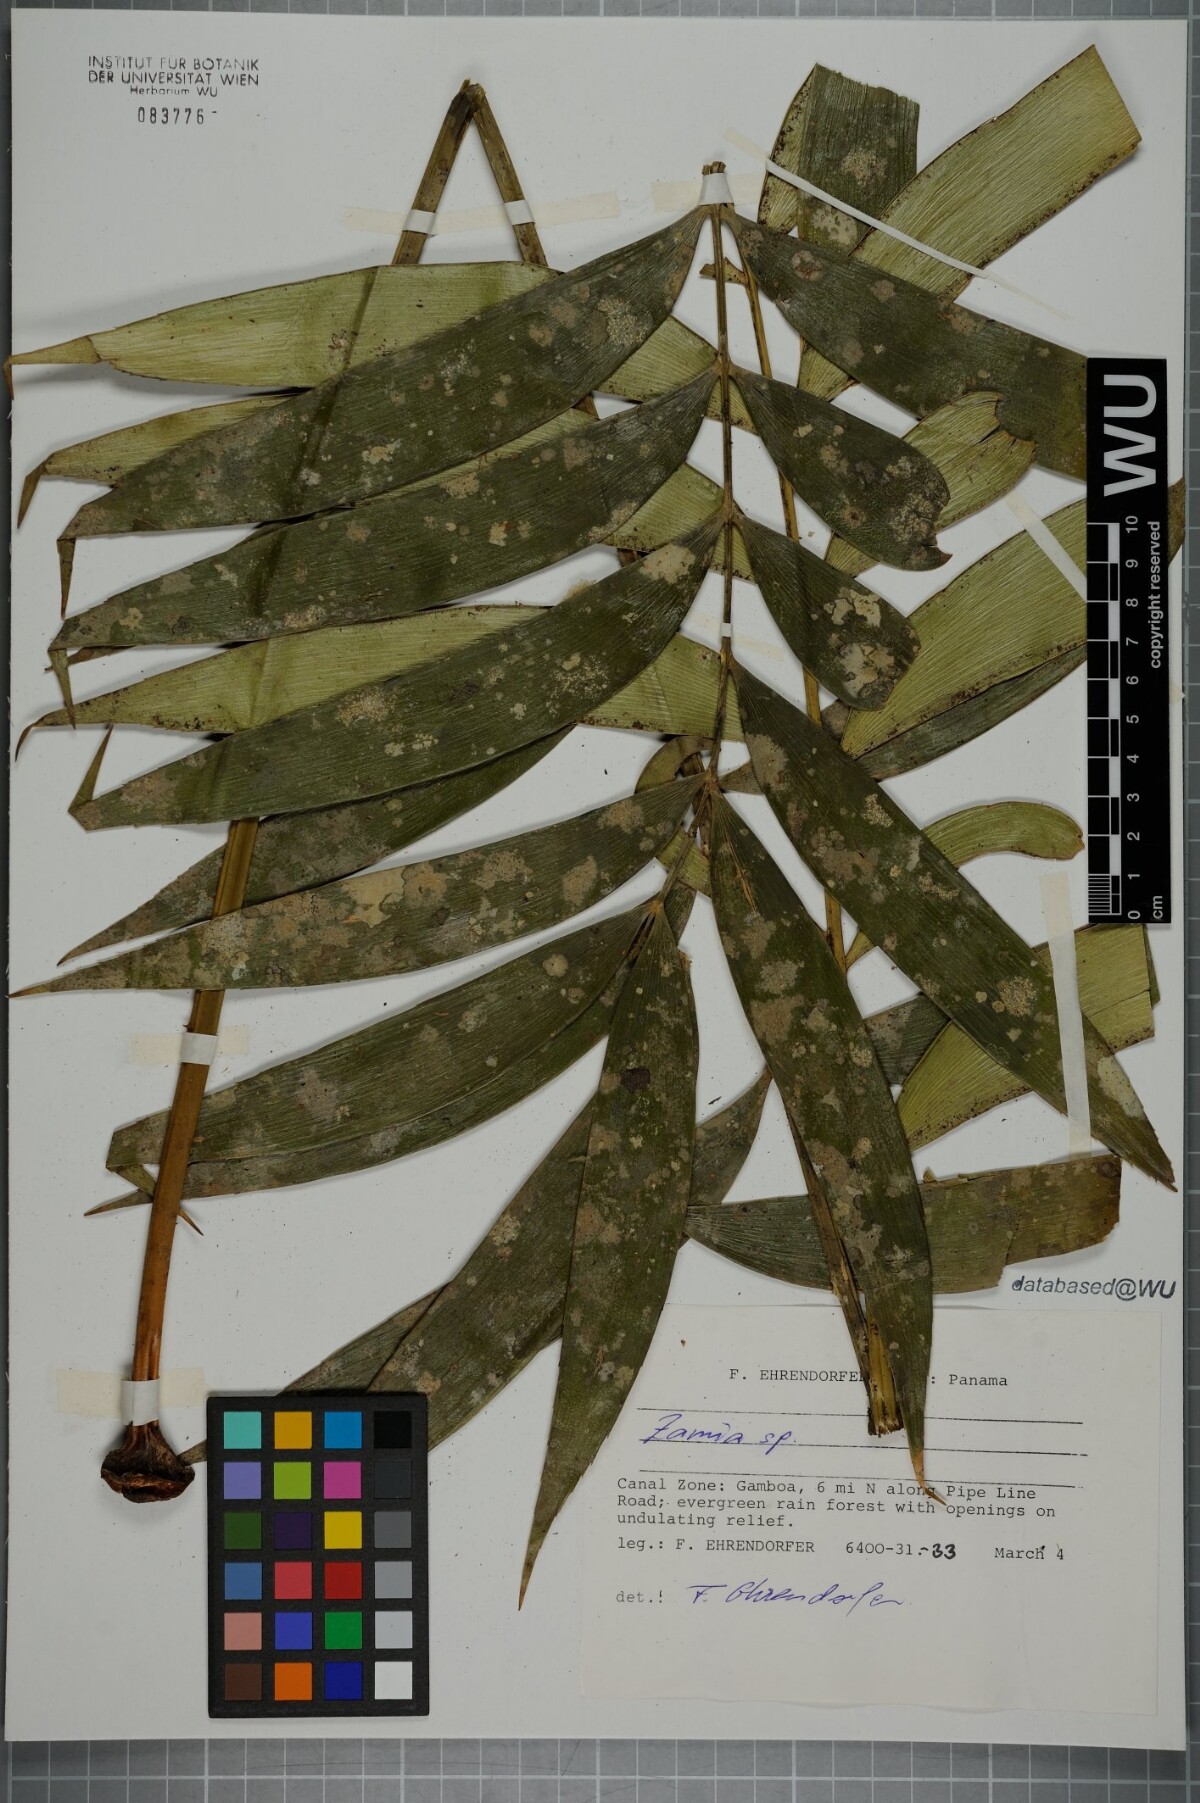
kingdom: Plantae
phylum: Tracheophyta
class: Cycadopsida
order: Cycadales
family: Zamiaceae
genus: Zamia
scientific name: Zamia
